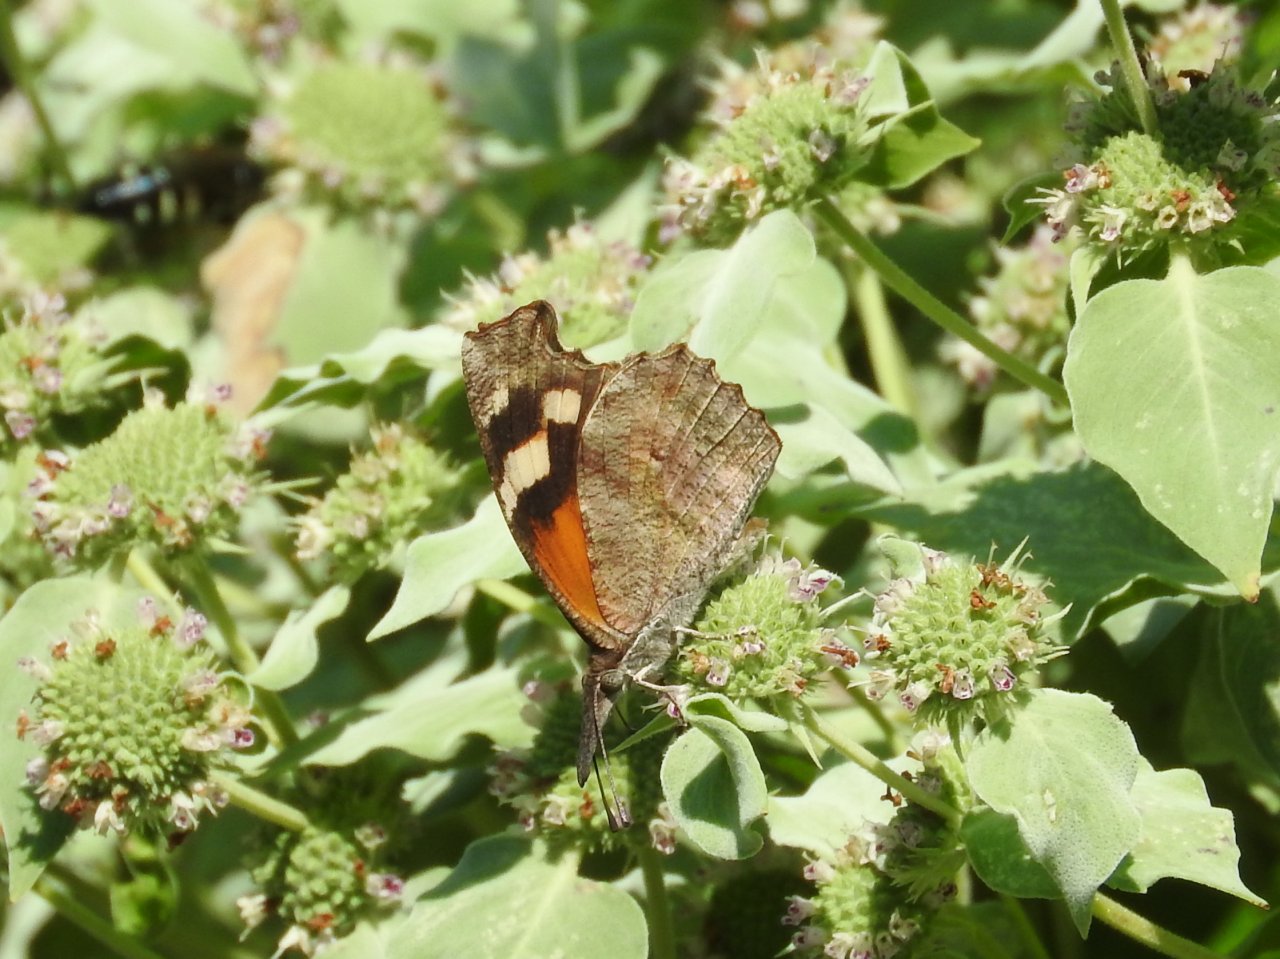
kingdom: Animalia
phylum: Arthropoda
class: Insecta
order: Lepidoptera
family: Nymphalidae
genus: Libytheana
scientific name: Libytheana carinenta
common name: American Snout
